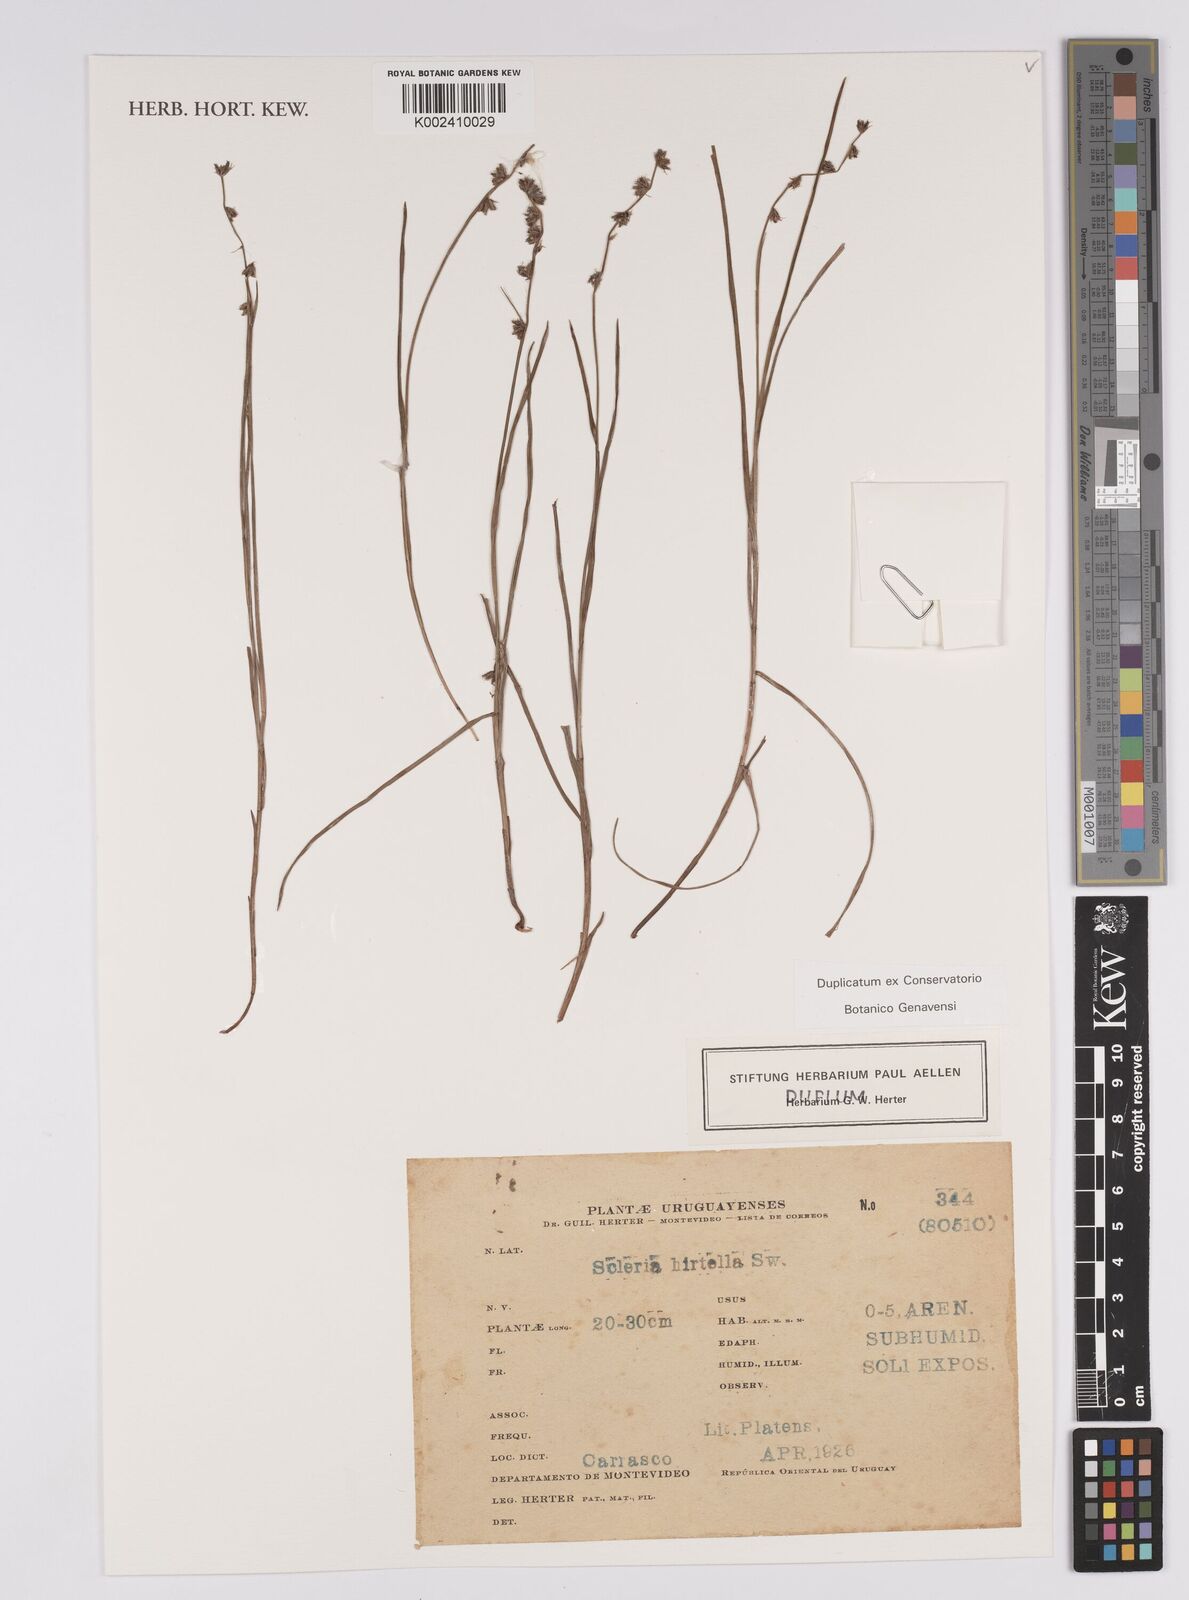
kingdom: Plantae
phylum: Tracheophyta
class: Liliopsida
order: Poales
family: Cyperaceae
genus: Scleria
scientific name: Scleria hirtella
